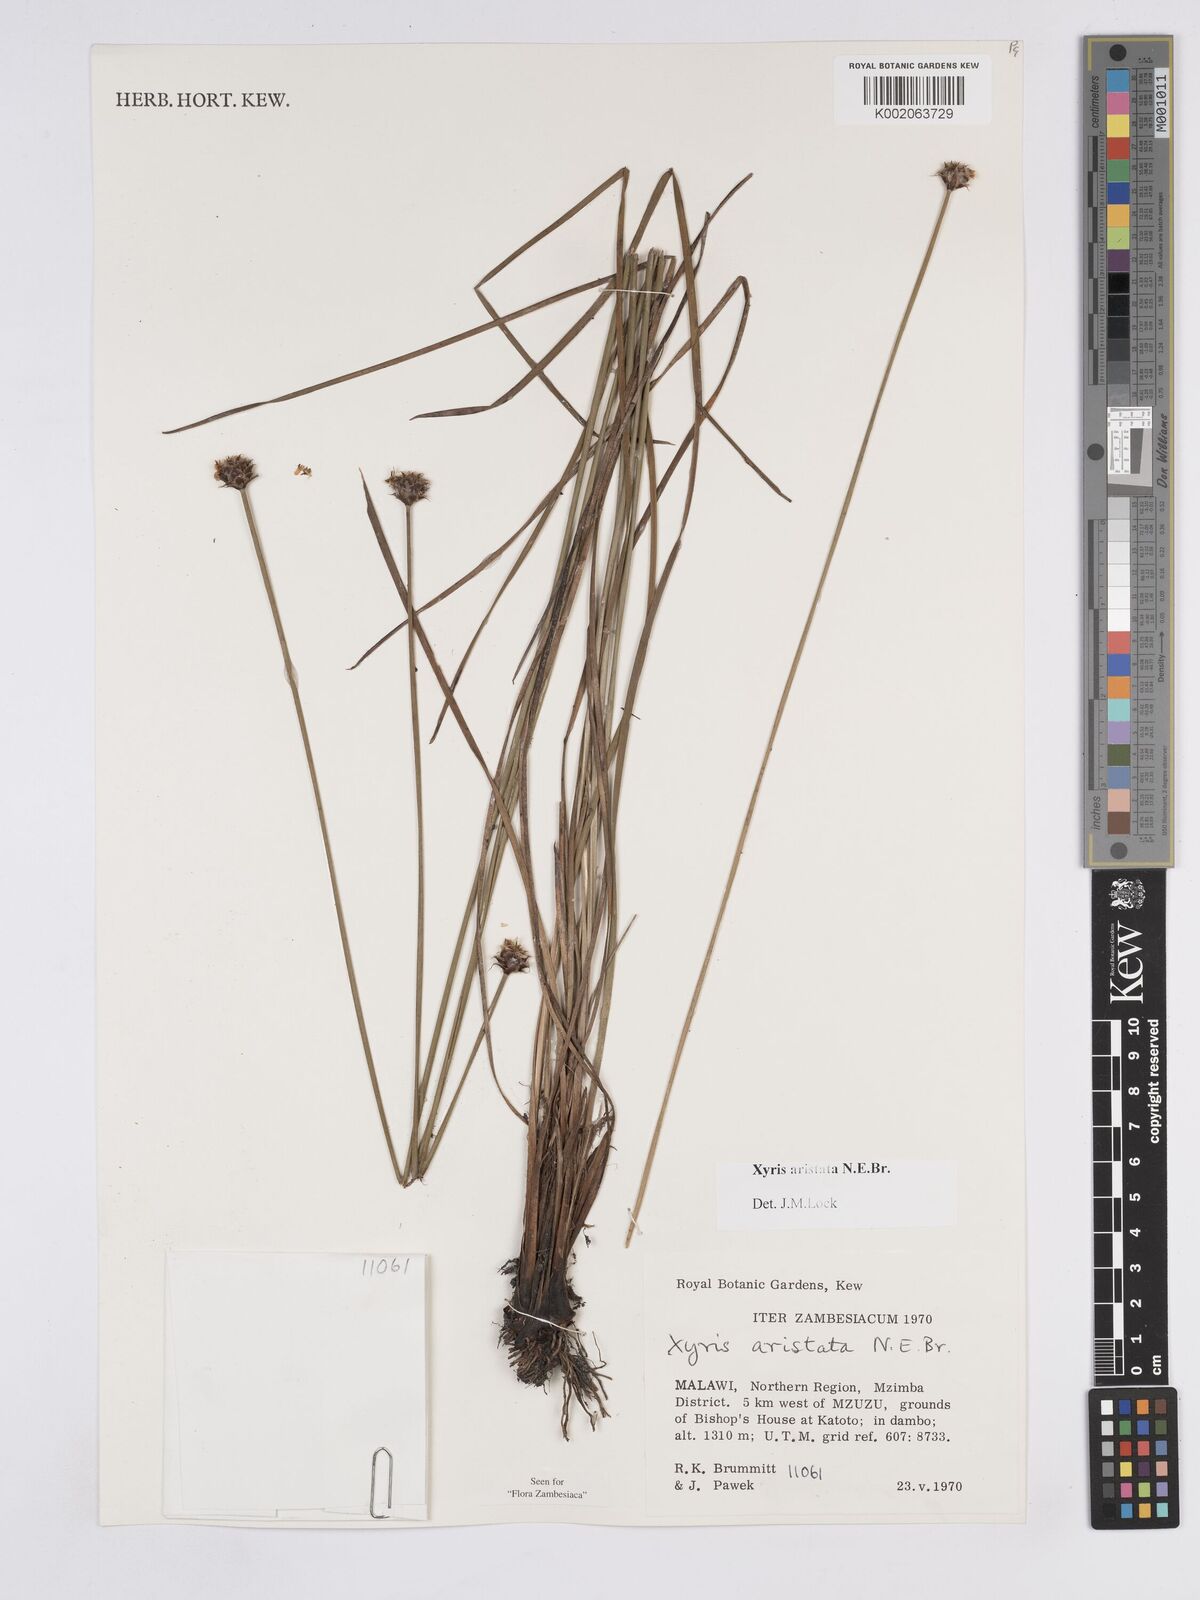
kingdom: Plantae
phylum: Tracheophyta
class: Liliopsida
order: Poales
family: Xyridaceae
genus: Xyris
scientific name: Xyris aristata
